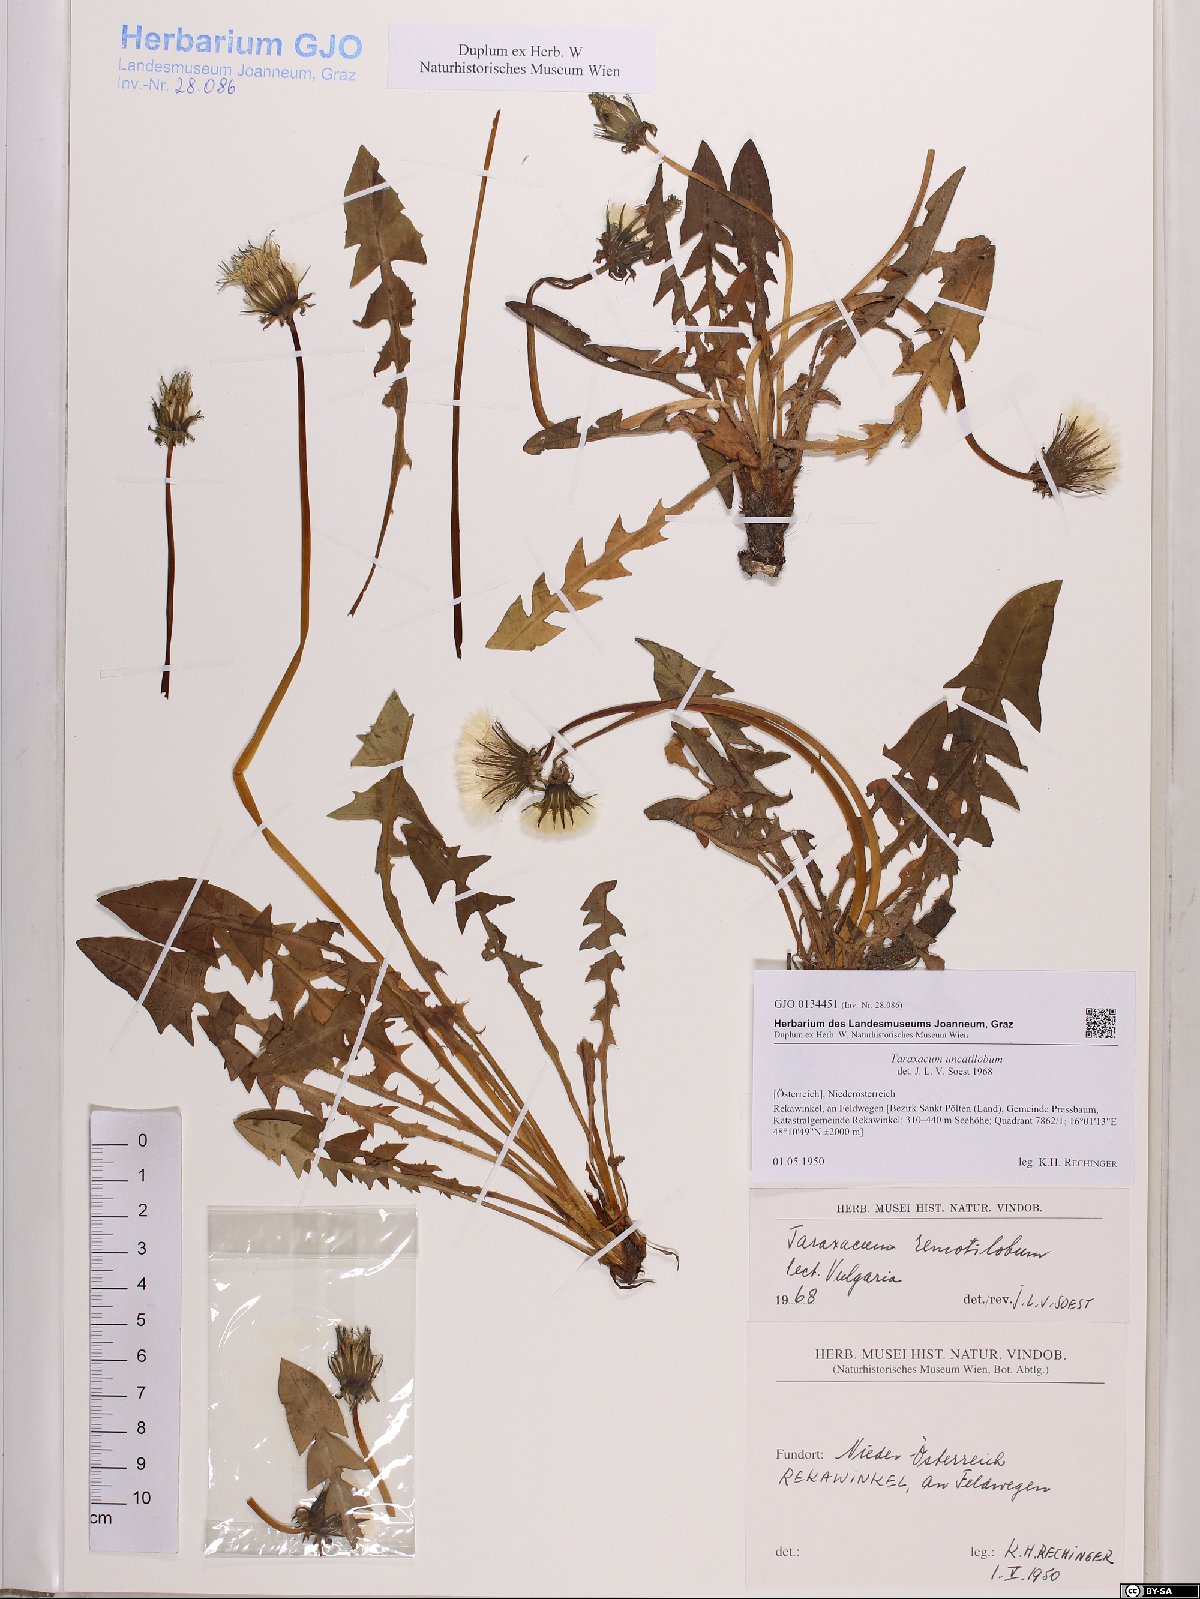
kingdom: Plantae
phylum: Tracheophyta
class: Magnoliopsida
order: Asterales
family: Asteraceae
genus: Taraxacum
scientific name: Taraxacum uncatilobum
